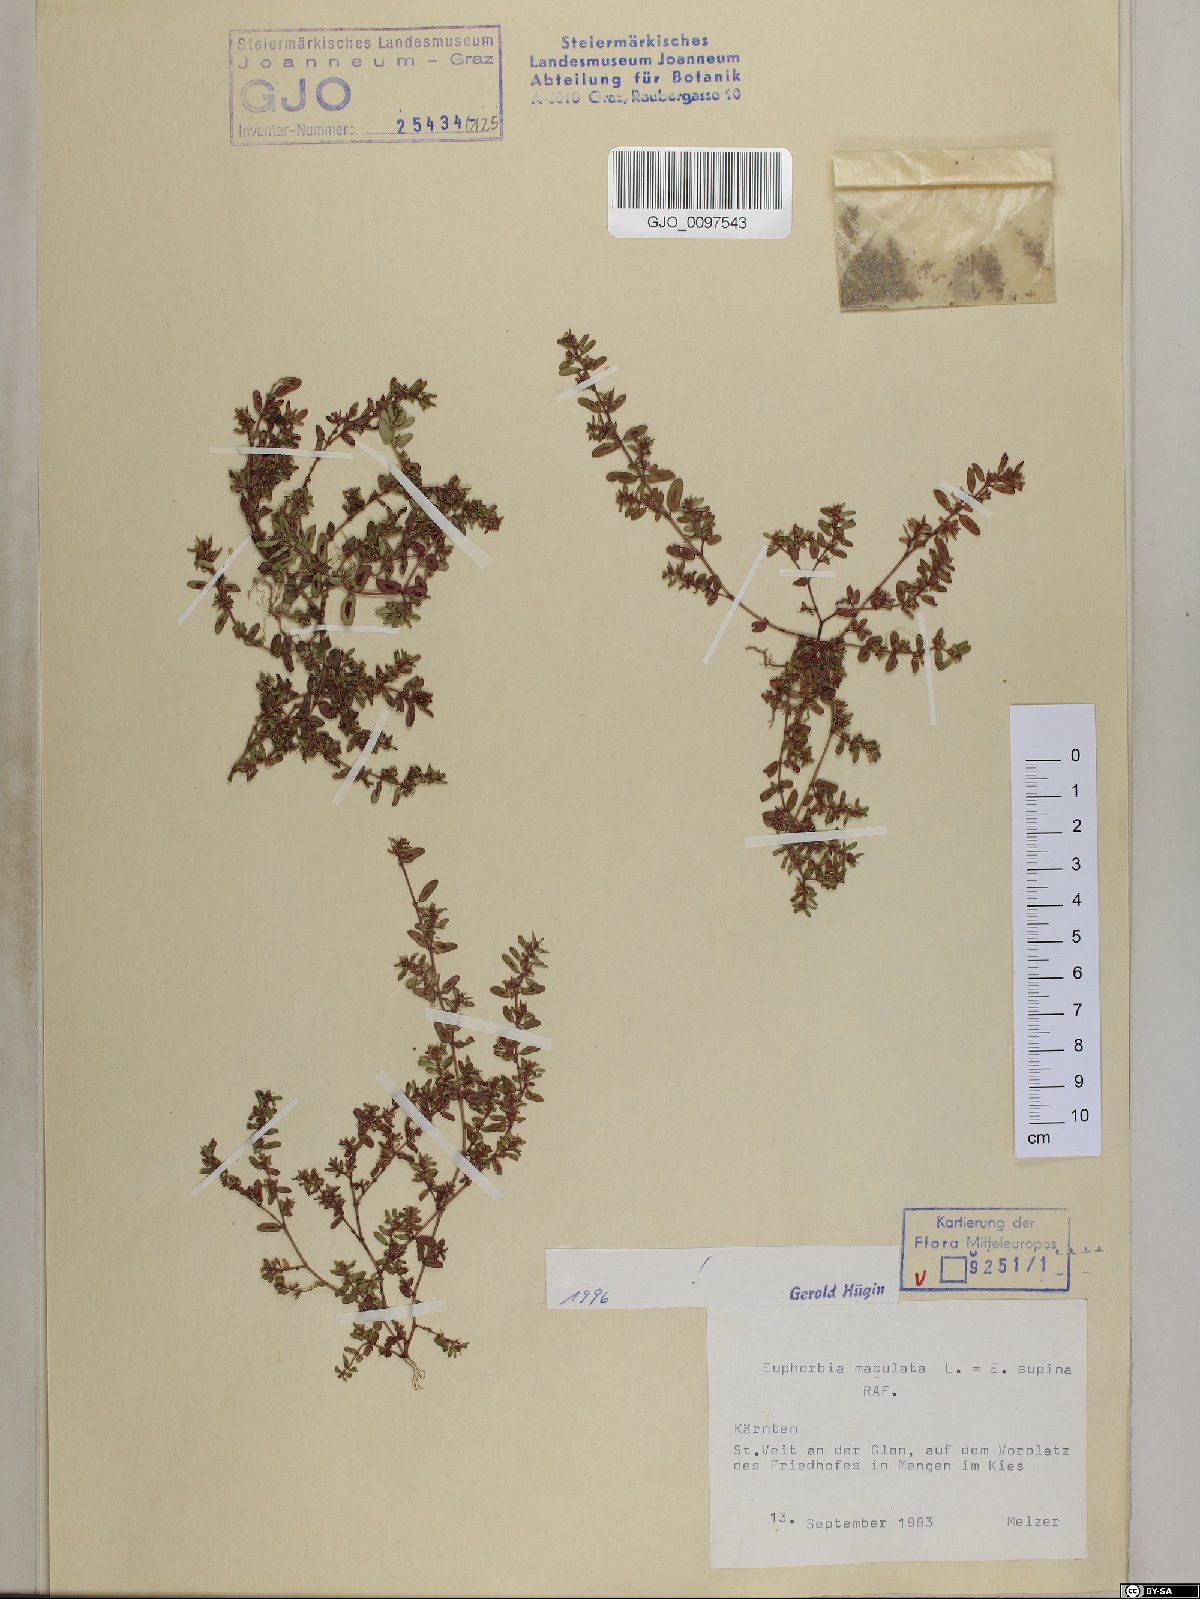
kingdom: Plantae
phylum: Tracheophyta
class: Magnoliopsida
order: Malpighiales
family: Euphorbiaceae
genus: Euphorbia
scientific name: Euphorbia maculata
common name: Spotted spurge
